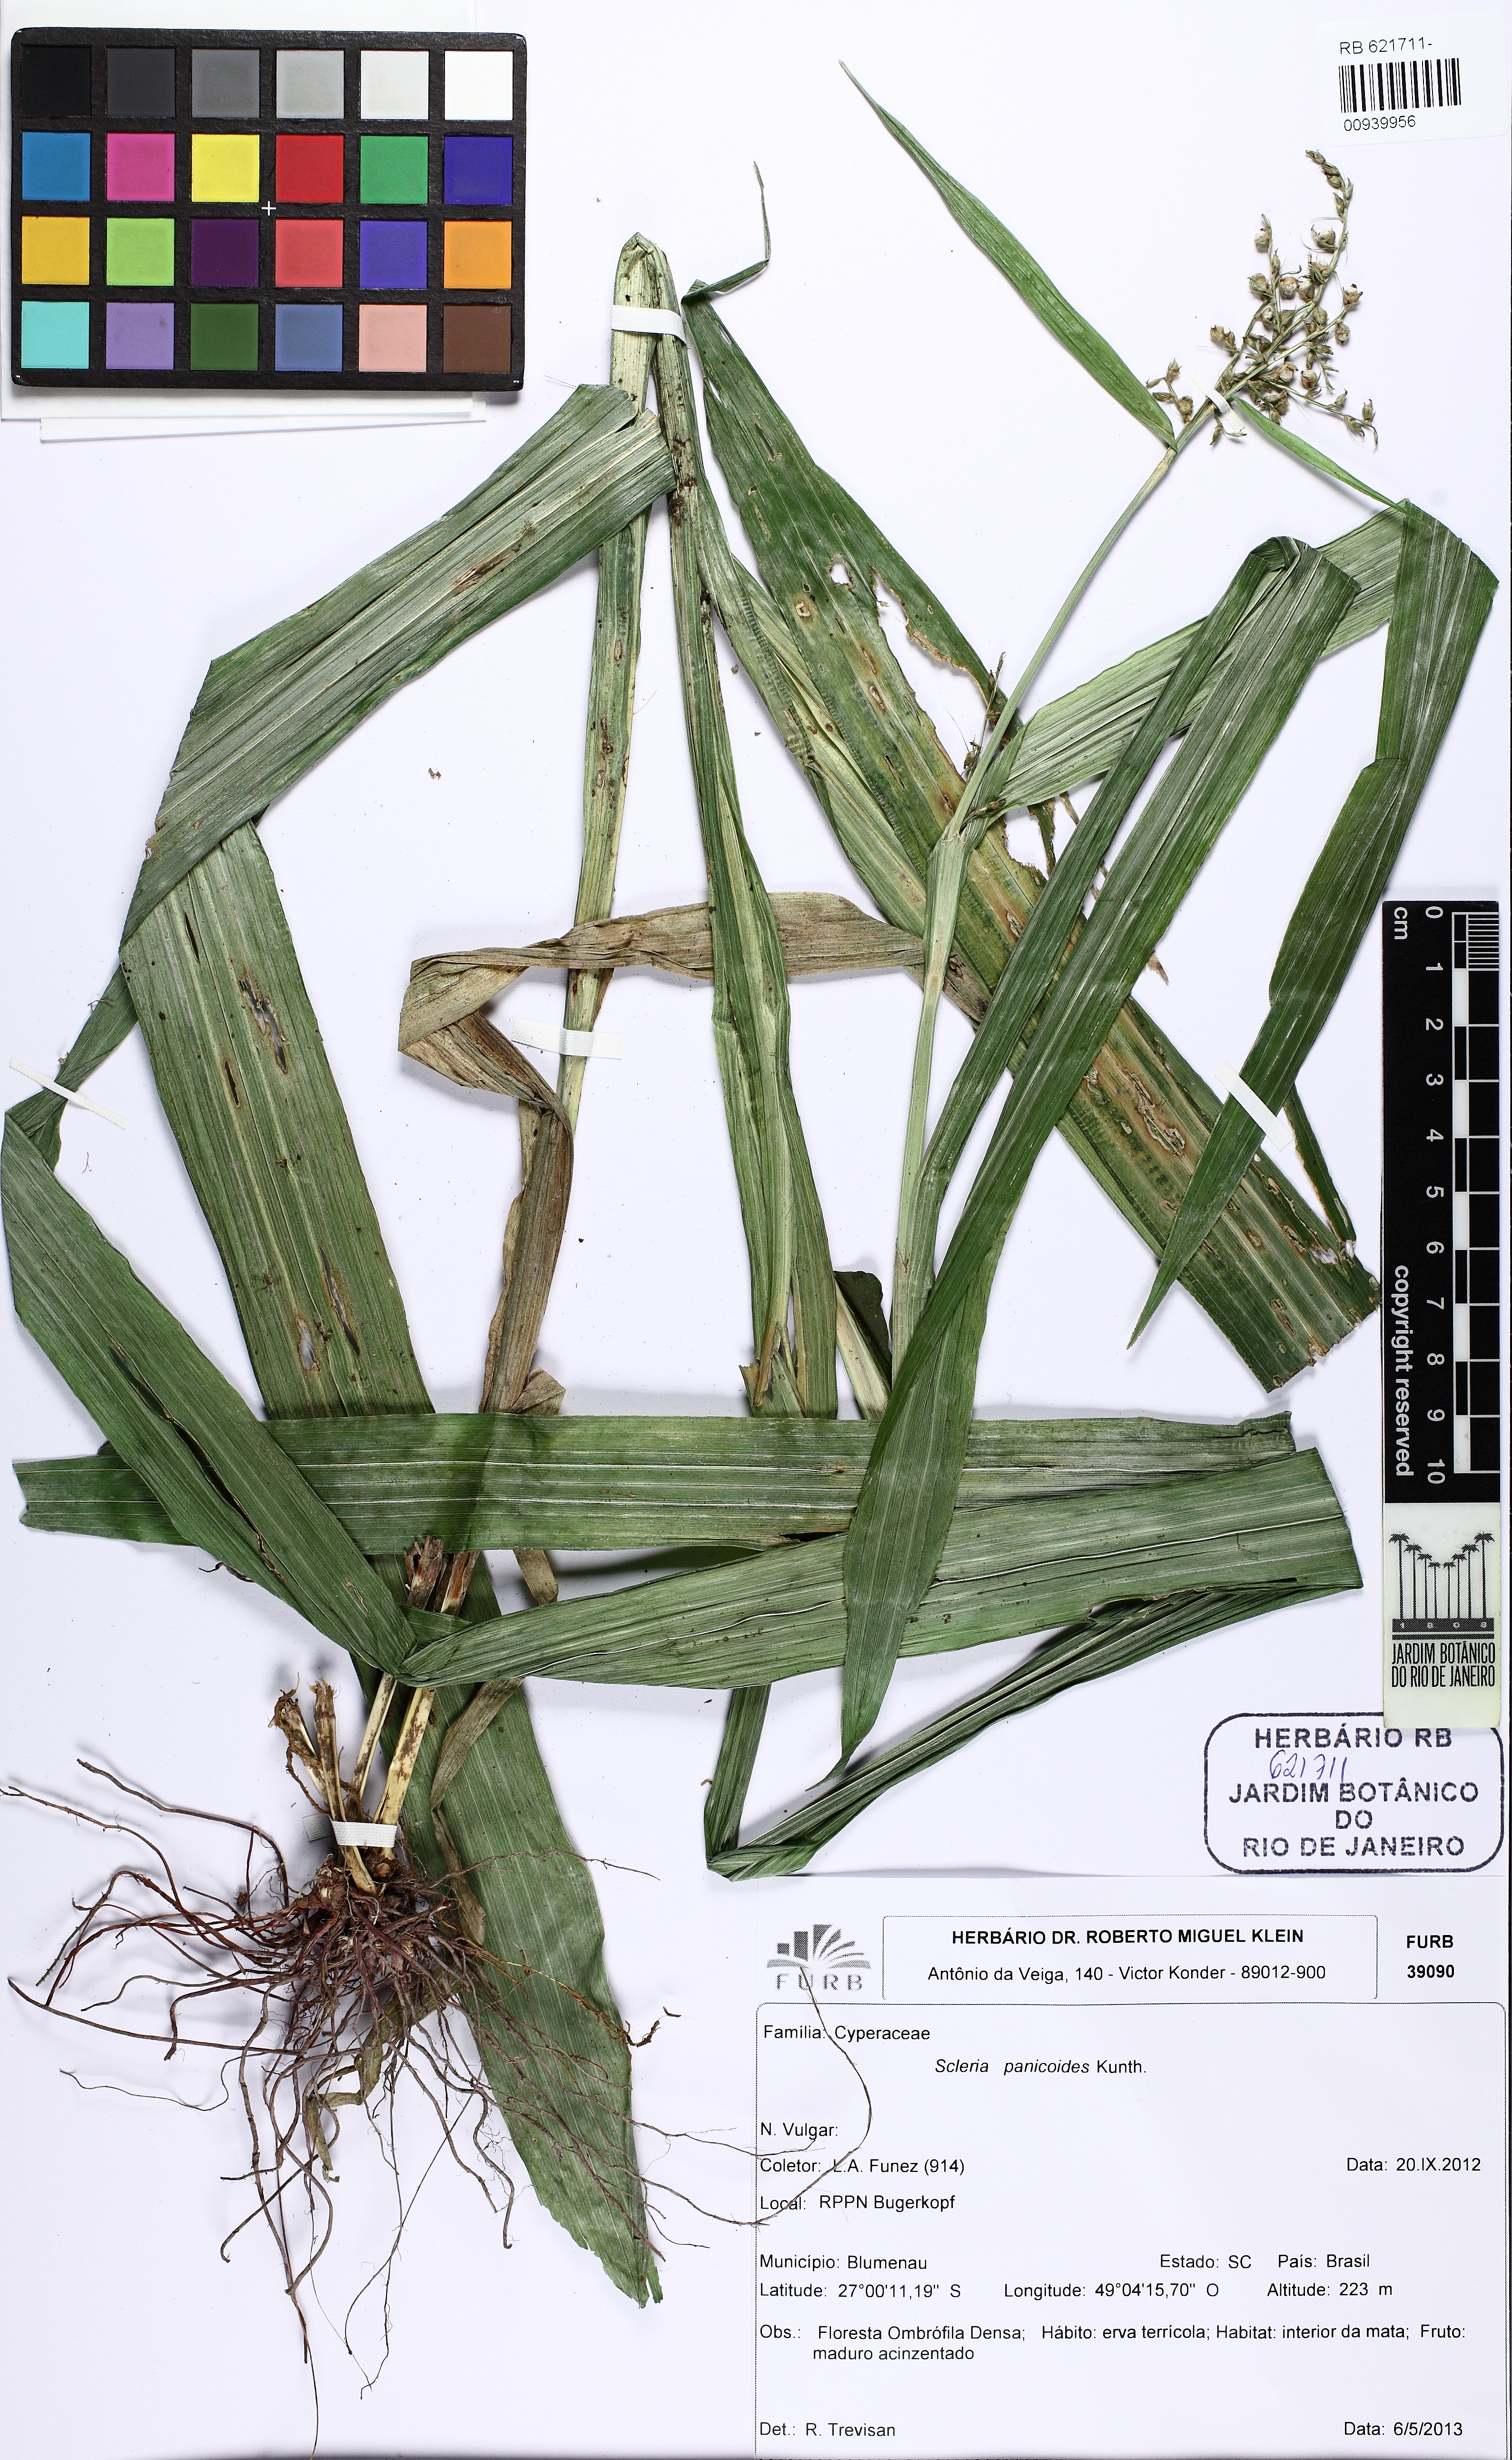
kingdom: Plantae
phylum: Tracheophyta
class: Liliopsida
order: Poales
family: Cyperaceae
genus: Scleria
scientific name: Scleria panicoides
